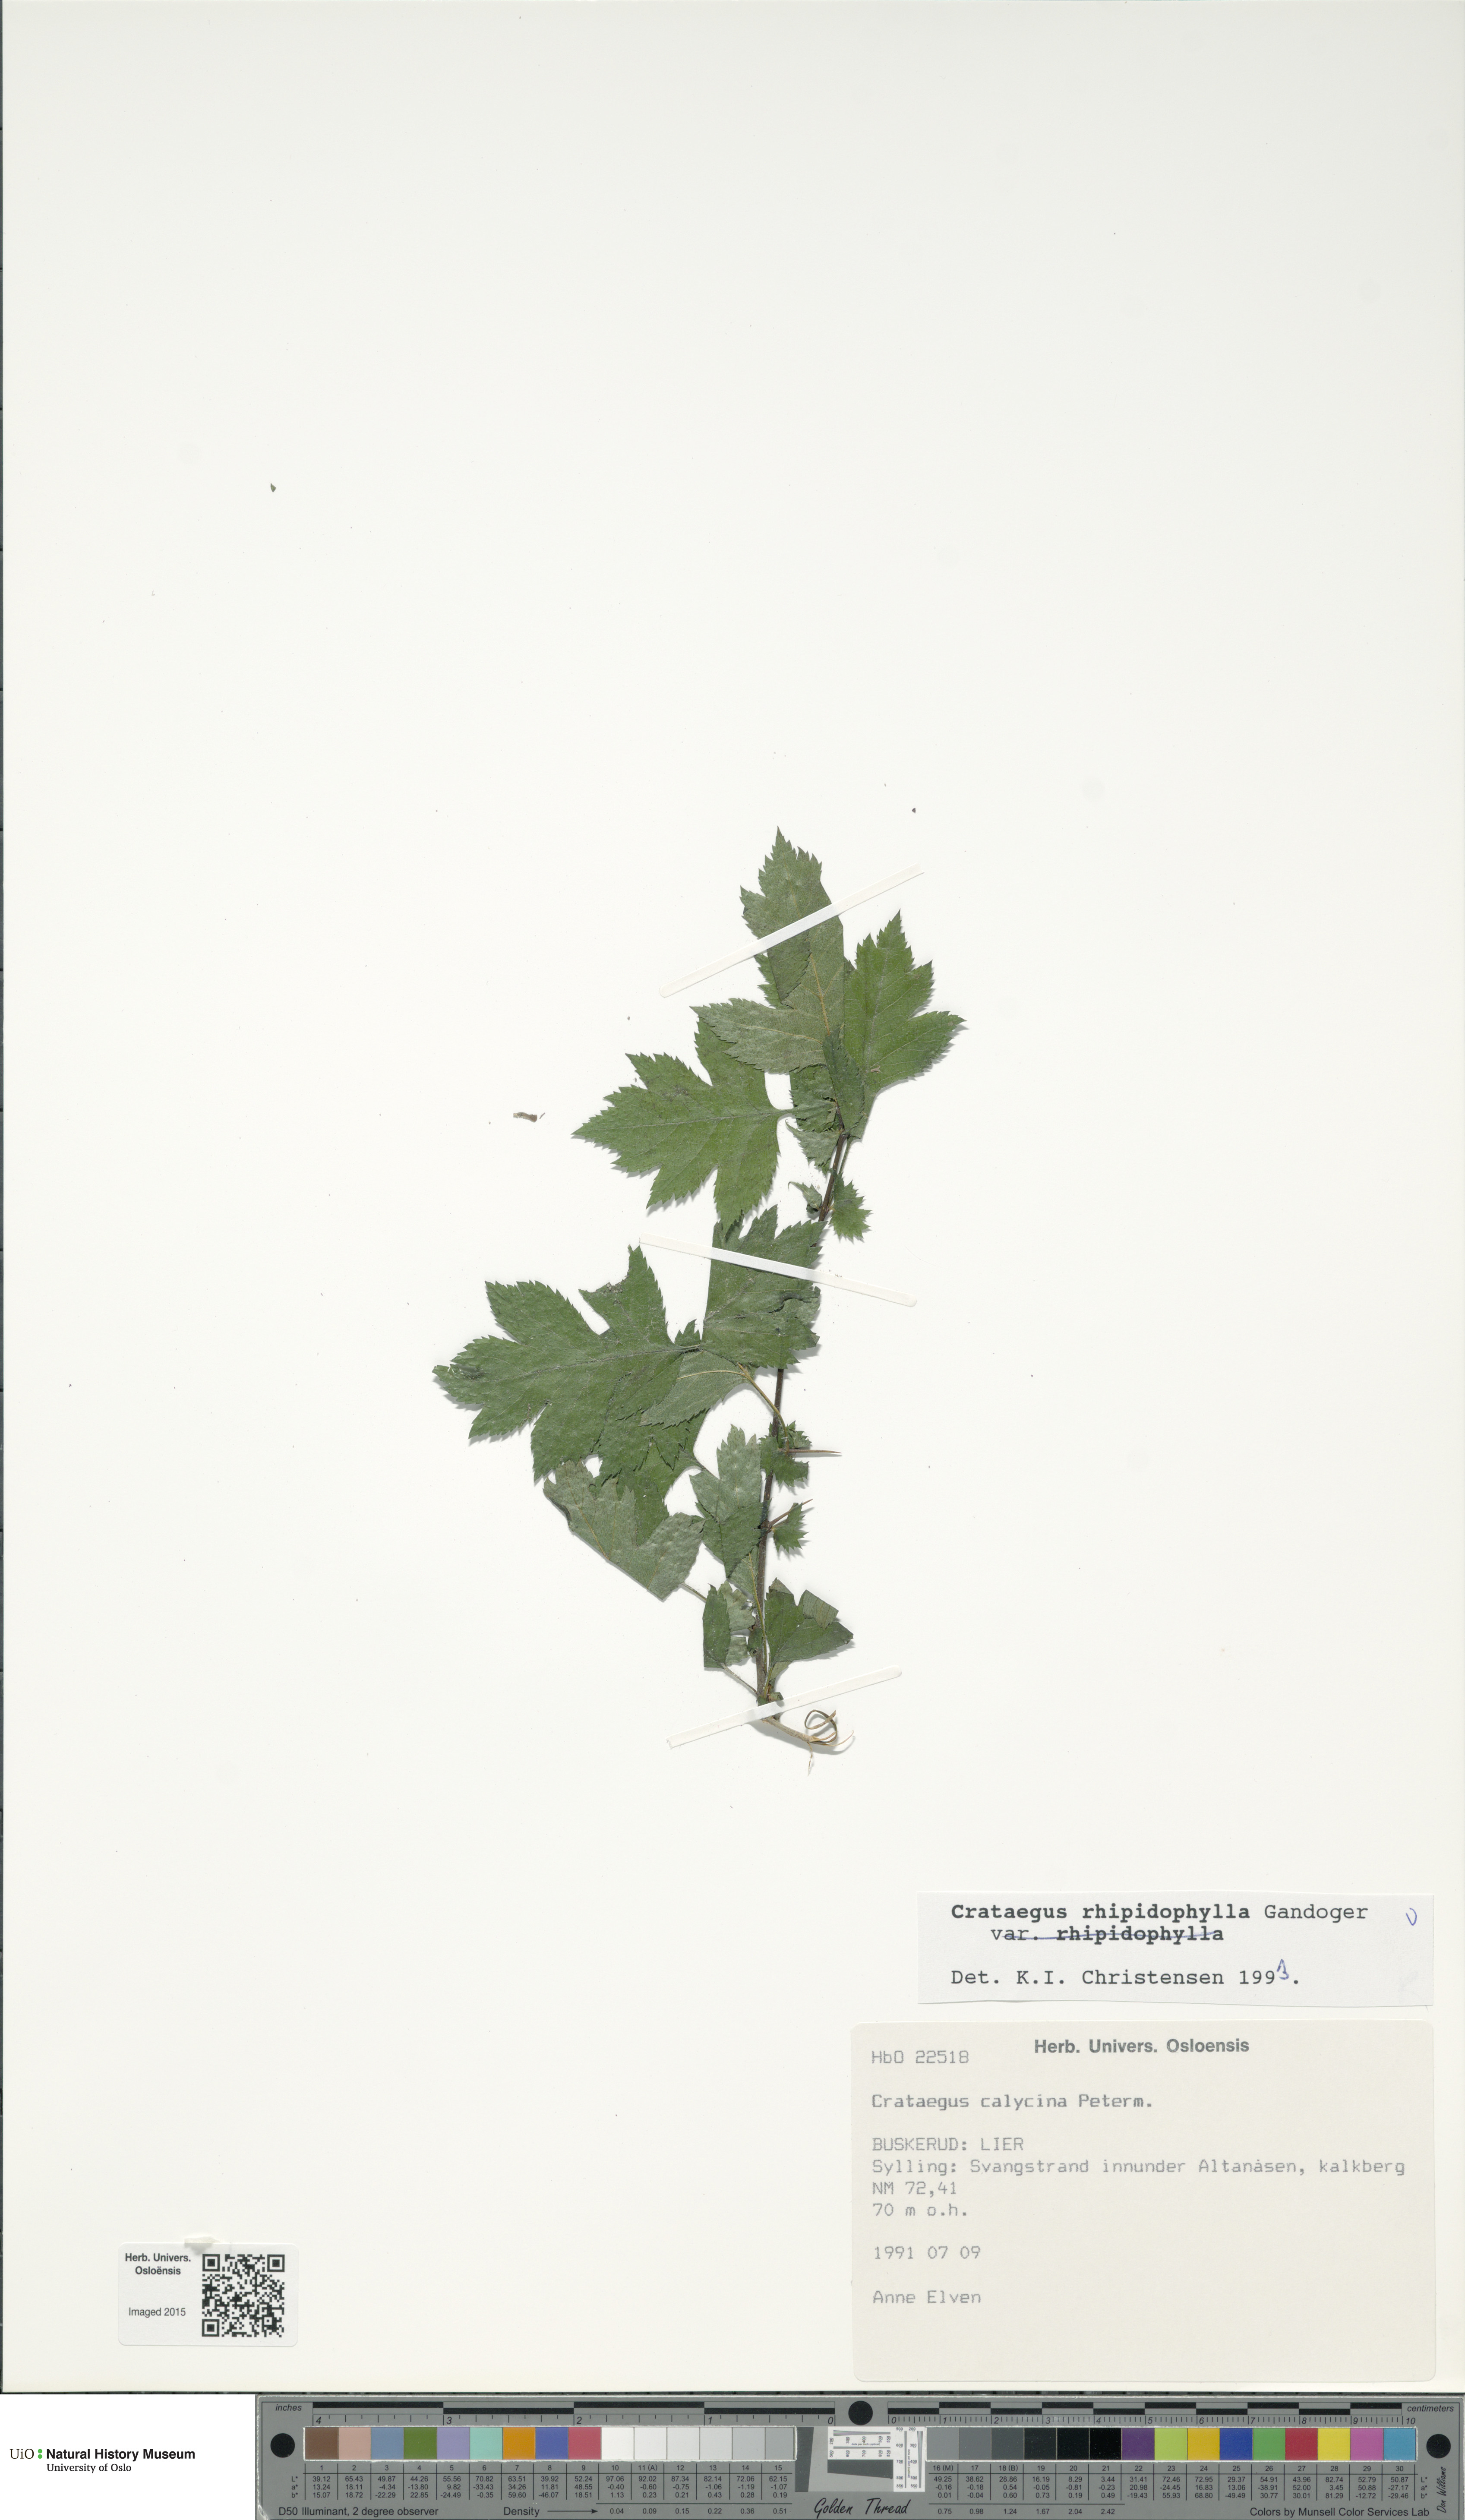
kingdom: Plantae
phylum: Tracheophyta
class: Magnoliopsida
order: Rosales
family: Rosaceae
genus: Crataegus
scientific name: Crataegus rhipidophylla
